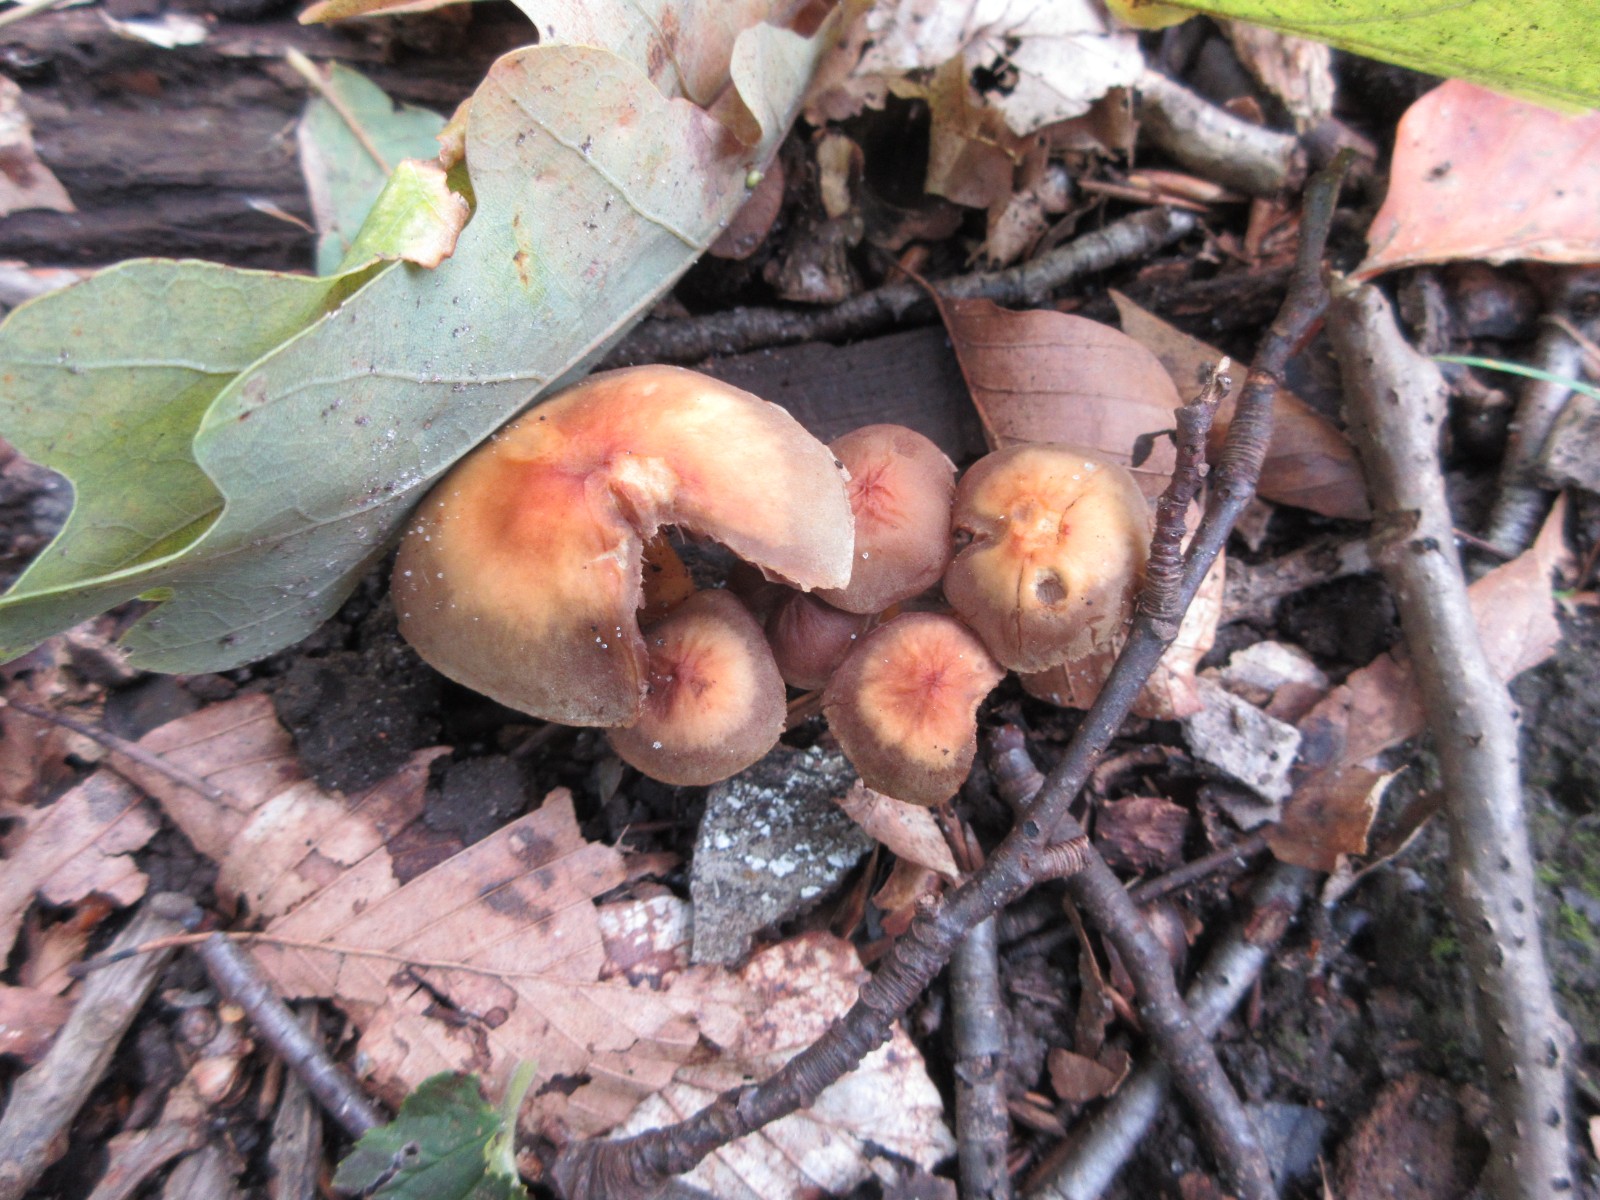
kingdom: Fungi
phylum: Basidiomycota
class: Agaricomycetes
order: Agaricales
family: Strophariaceae
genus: Hypholoma
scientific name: Hypholoma fasciculare
